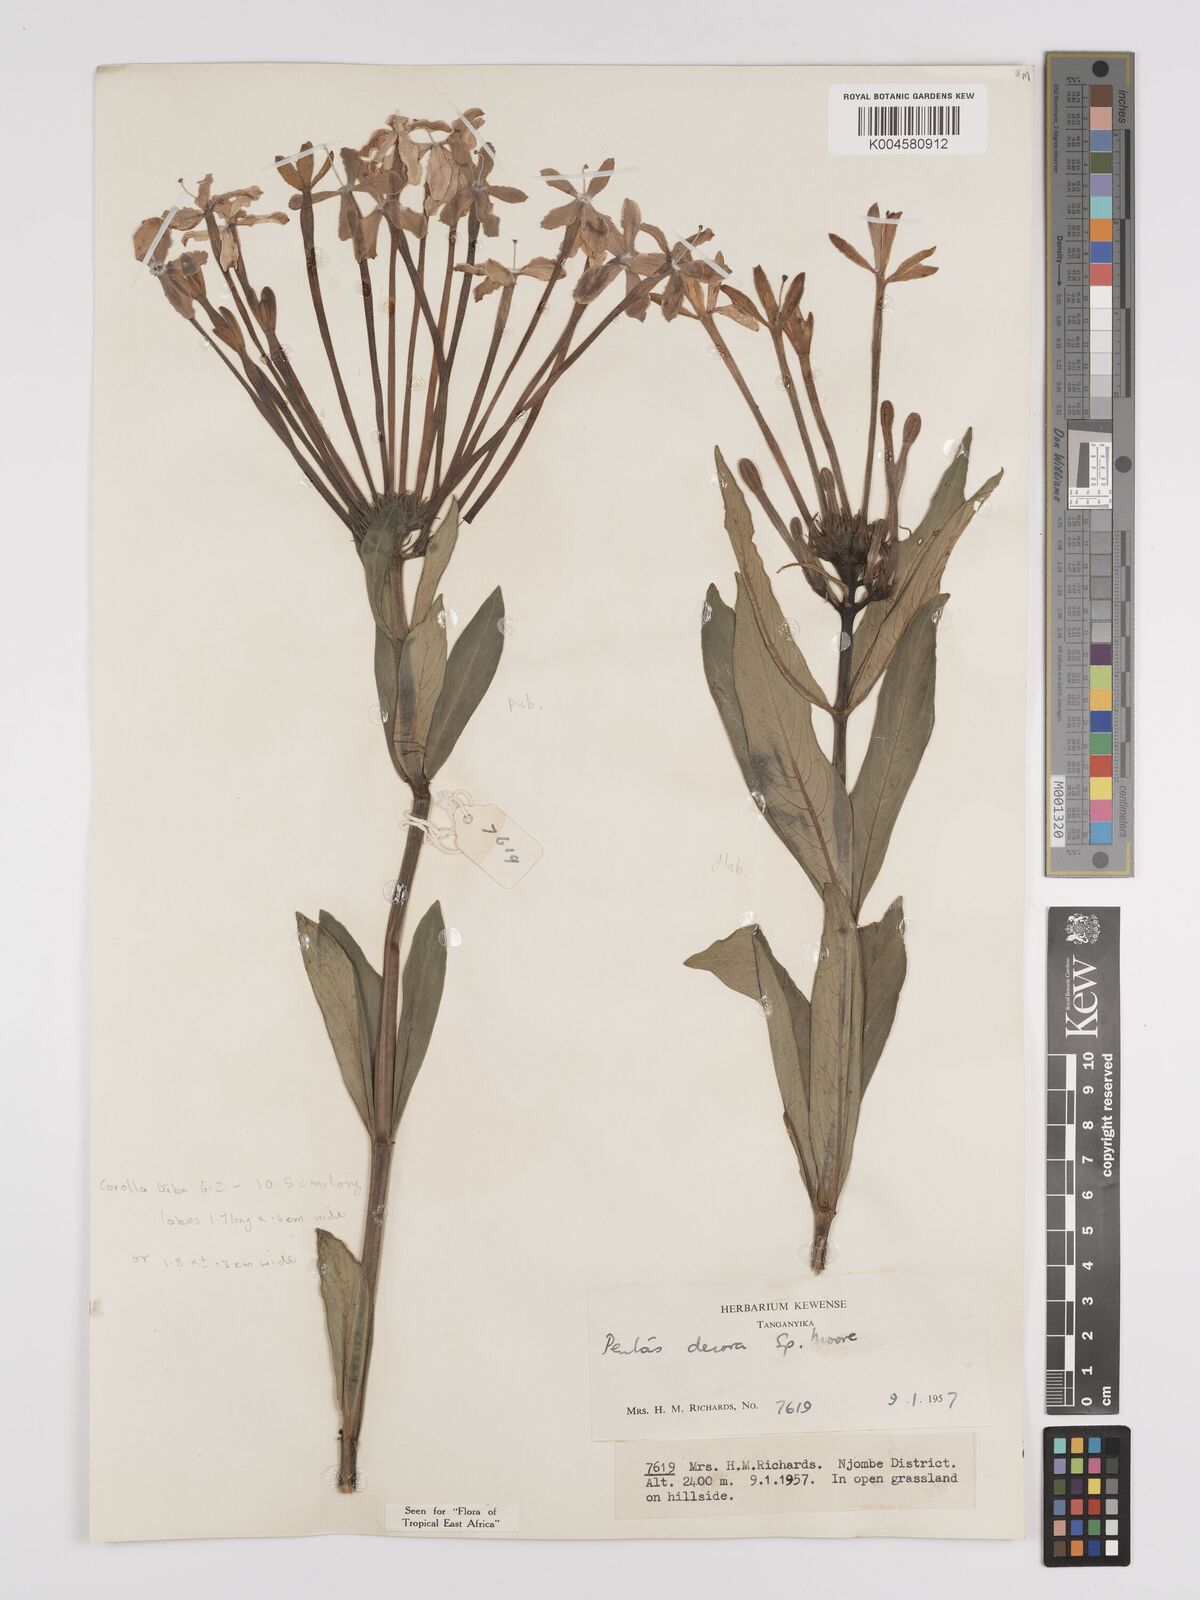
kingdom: Plantae
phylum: Tracheophyta
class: Magnoliopsida
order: Gentianales
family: Rubiaceae
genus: Dolichopentas
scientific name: Dolichopentas lindenioides
